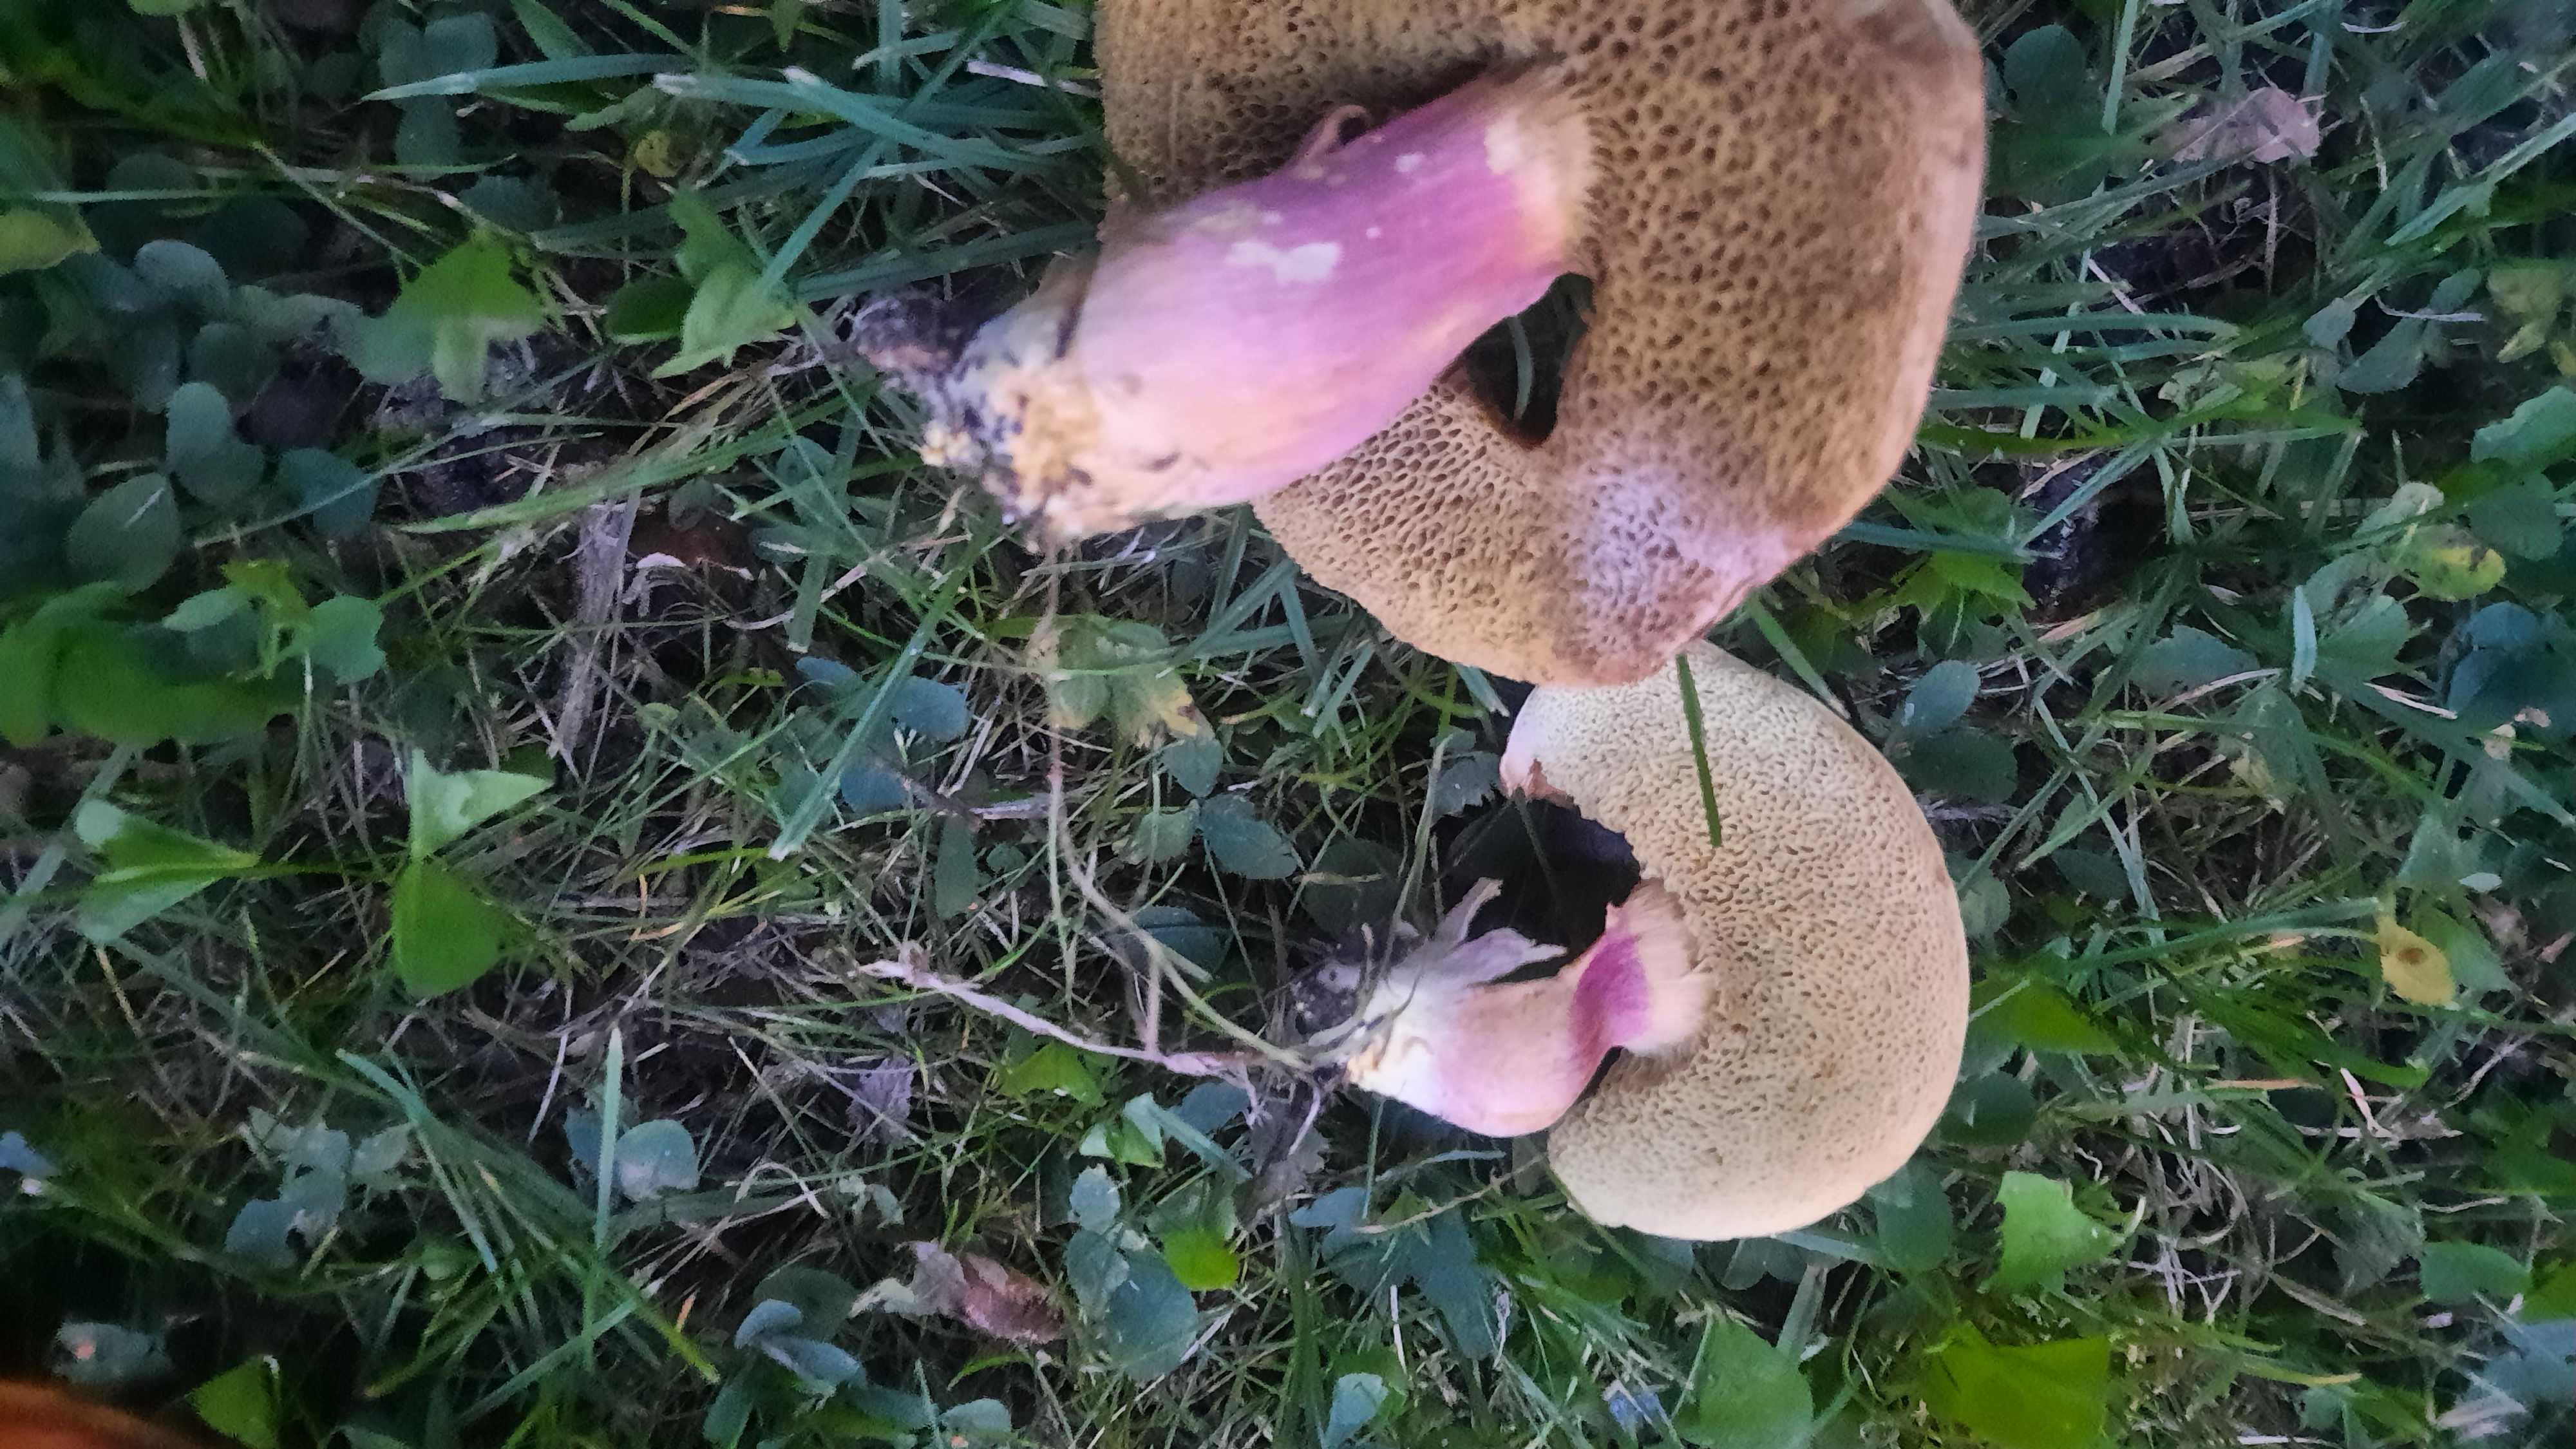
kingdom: Fungi
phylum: Basidiomycota
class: Agaricomycetes
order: Boletales
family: Boletaceae
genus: Hortiboletus
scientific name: Hortiboletus bubalinus
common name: aurora-rørhat
